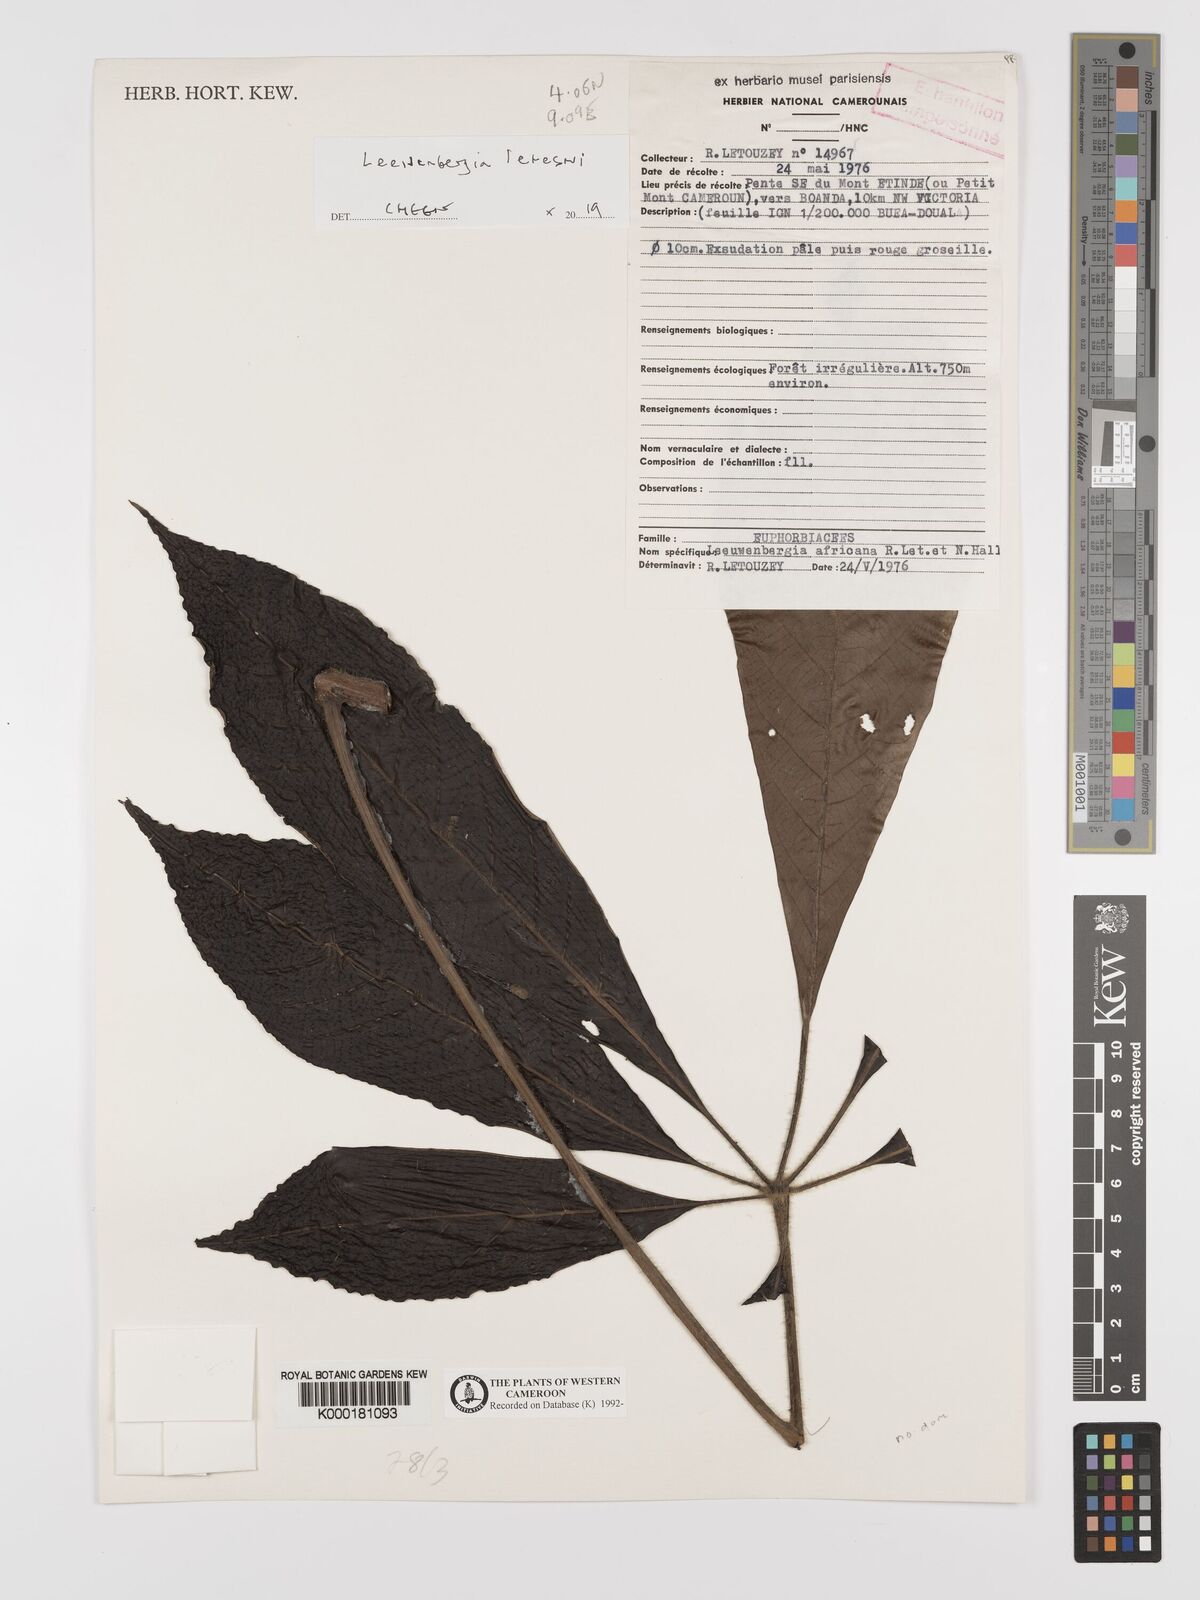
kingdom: Plantae
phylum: Tracheophyta
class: Magnoliopsida
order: Malpighiales
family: Euphorbiaceae
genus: Leeuwenbergia
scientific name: Leeuwenbergia
